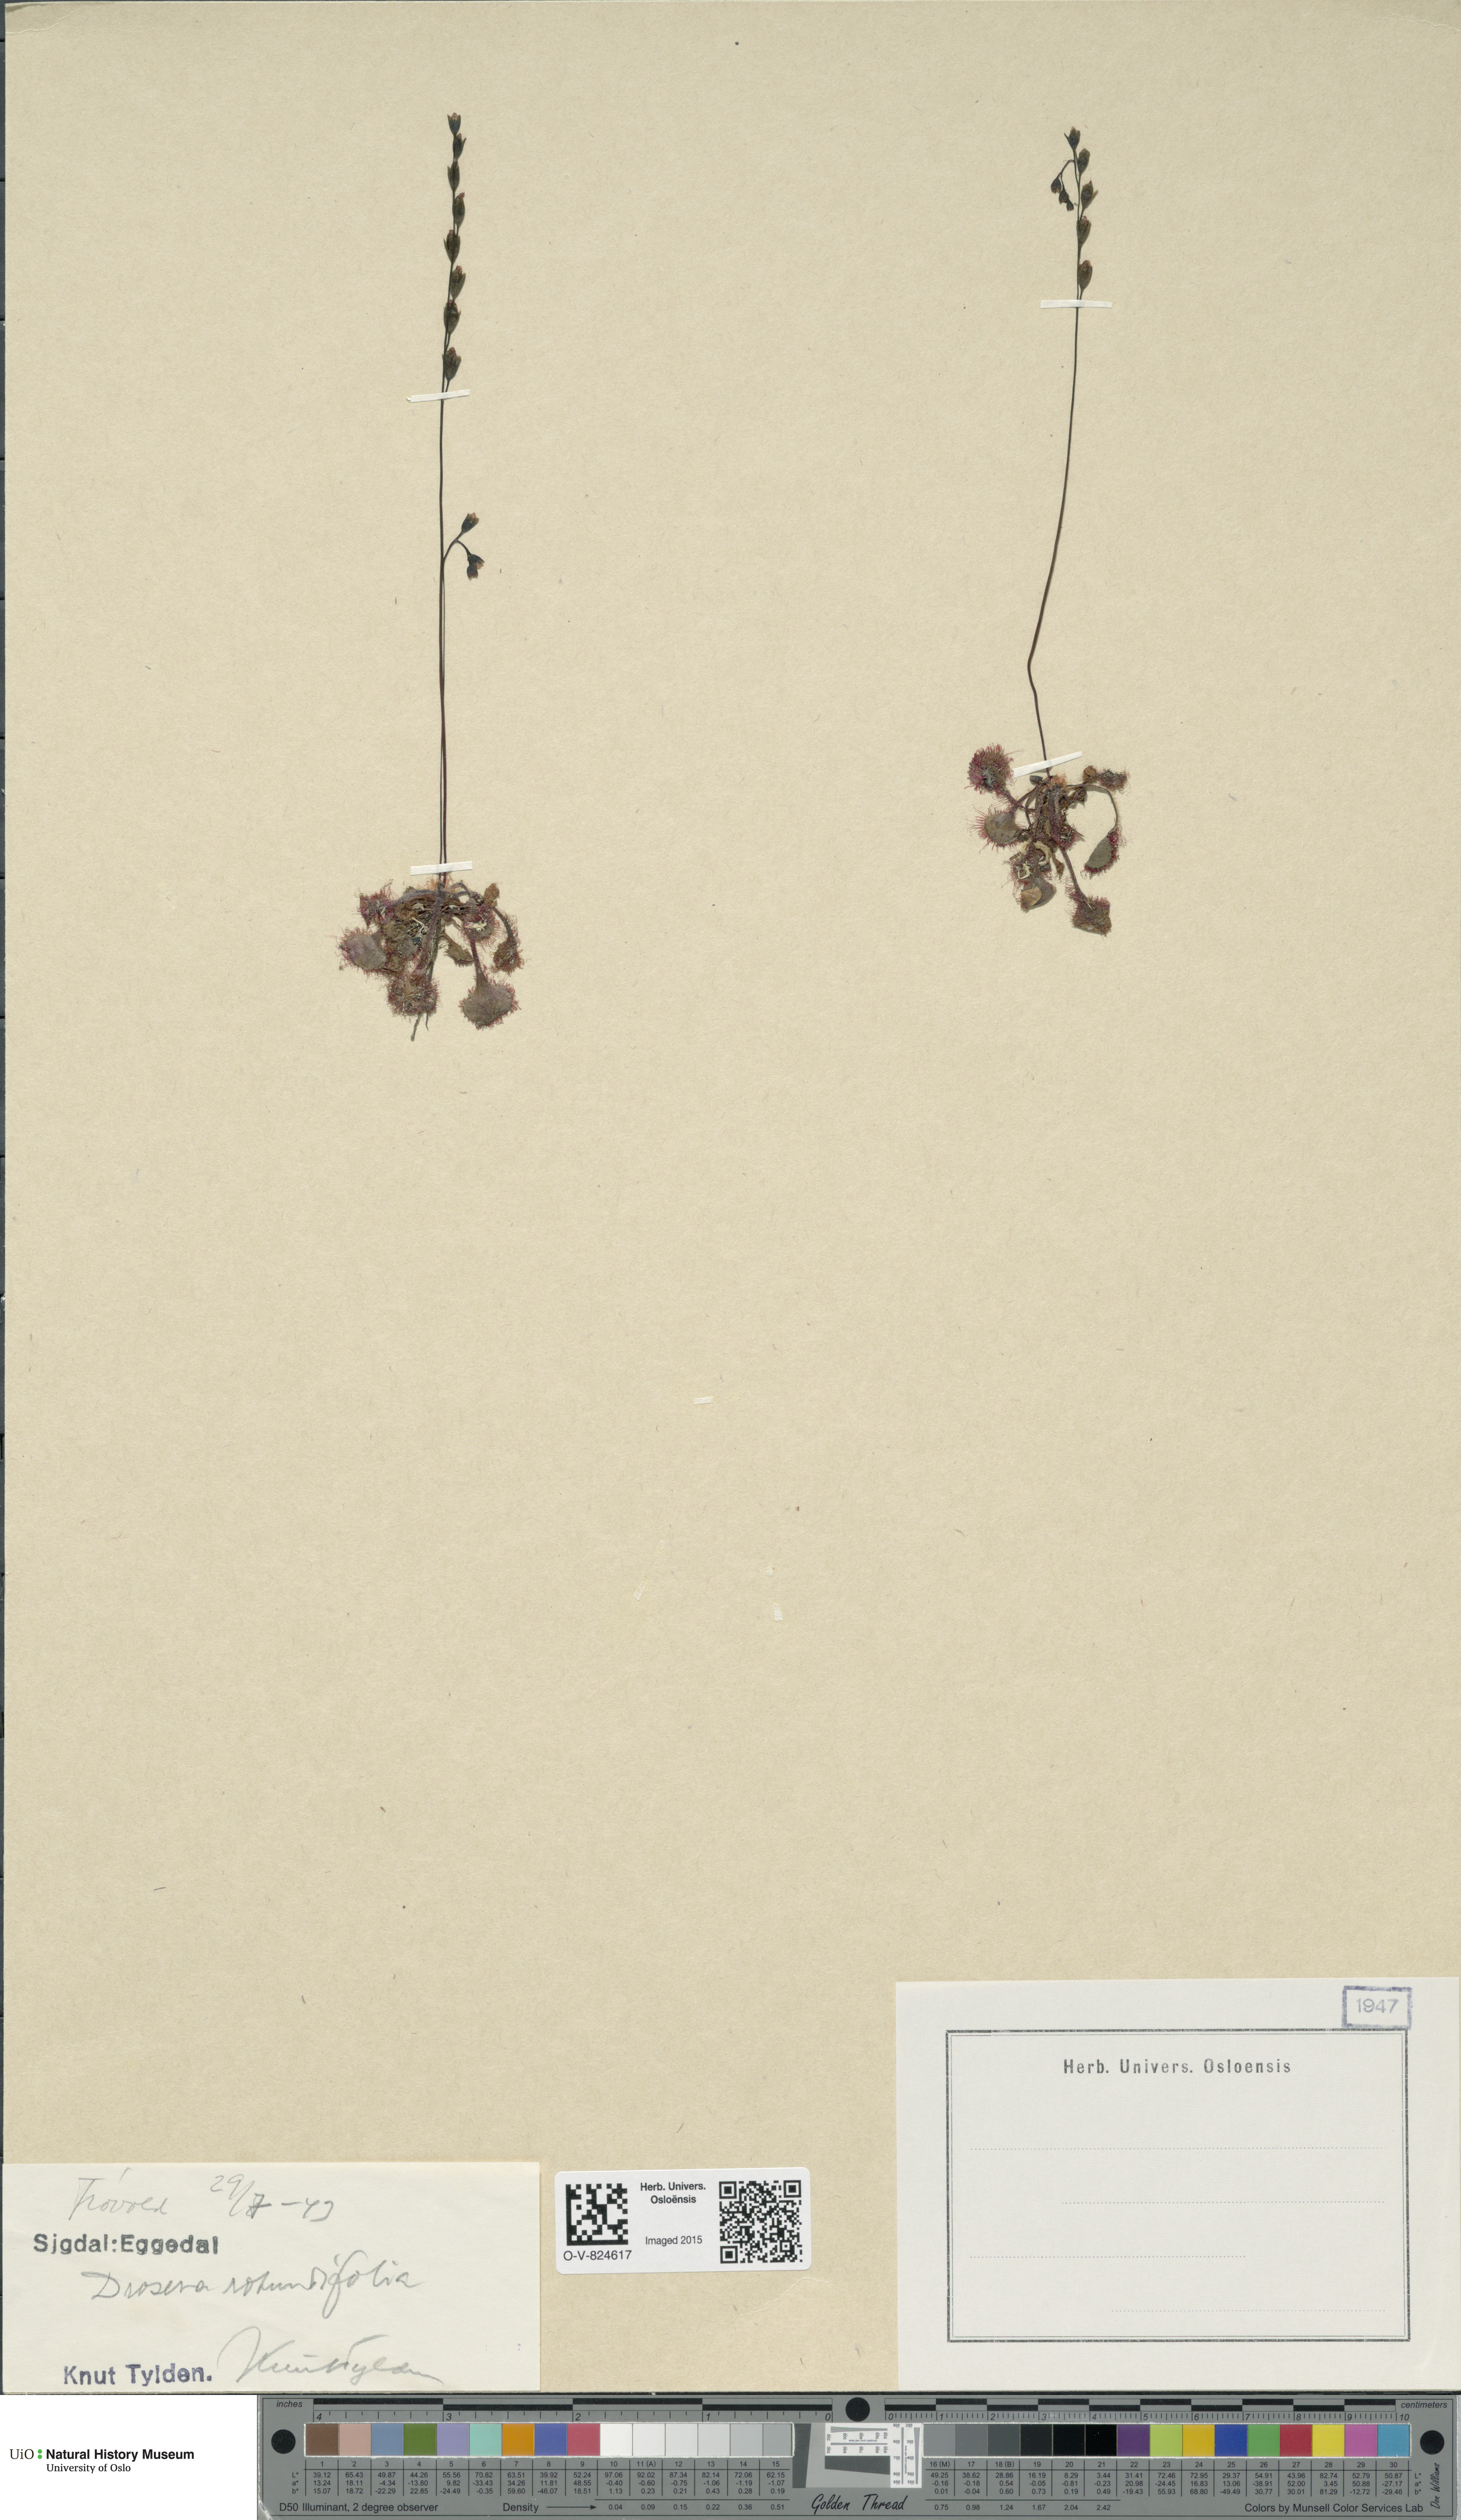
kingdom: Plantae
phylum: Tracheophyta
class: Magnoliopsida
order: Caryophyllales
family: Droseraceae
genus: Drosera
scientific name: Drosera rotundifolia
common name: Round-leaved sundew
